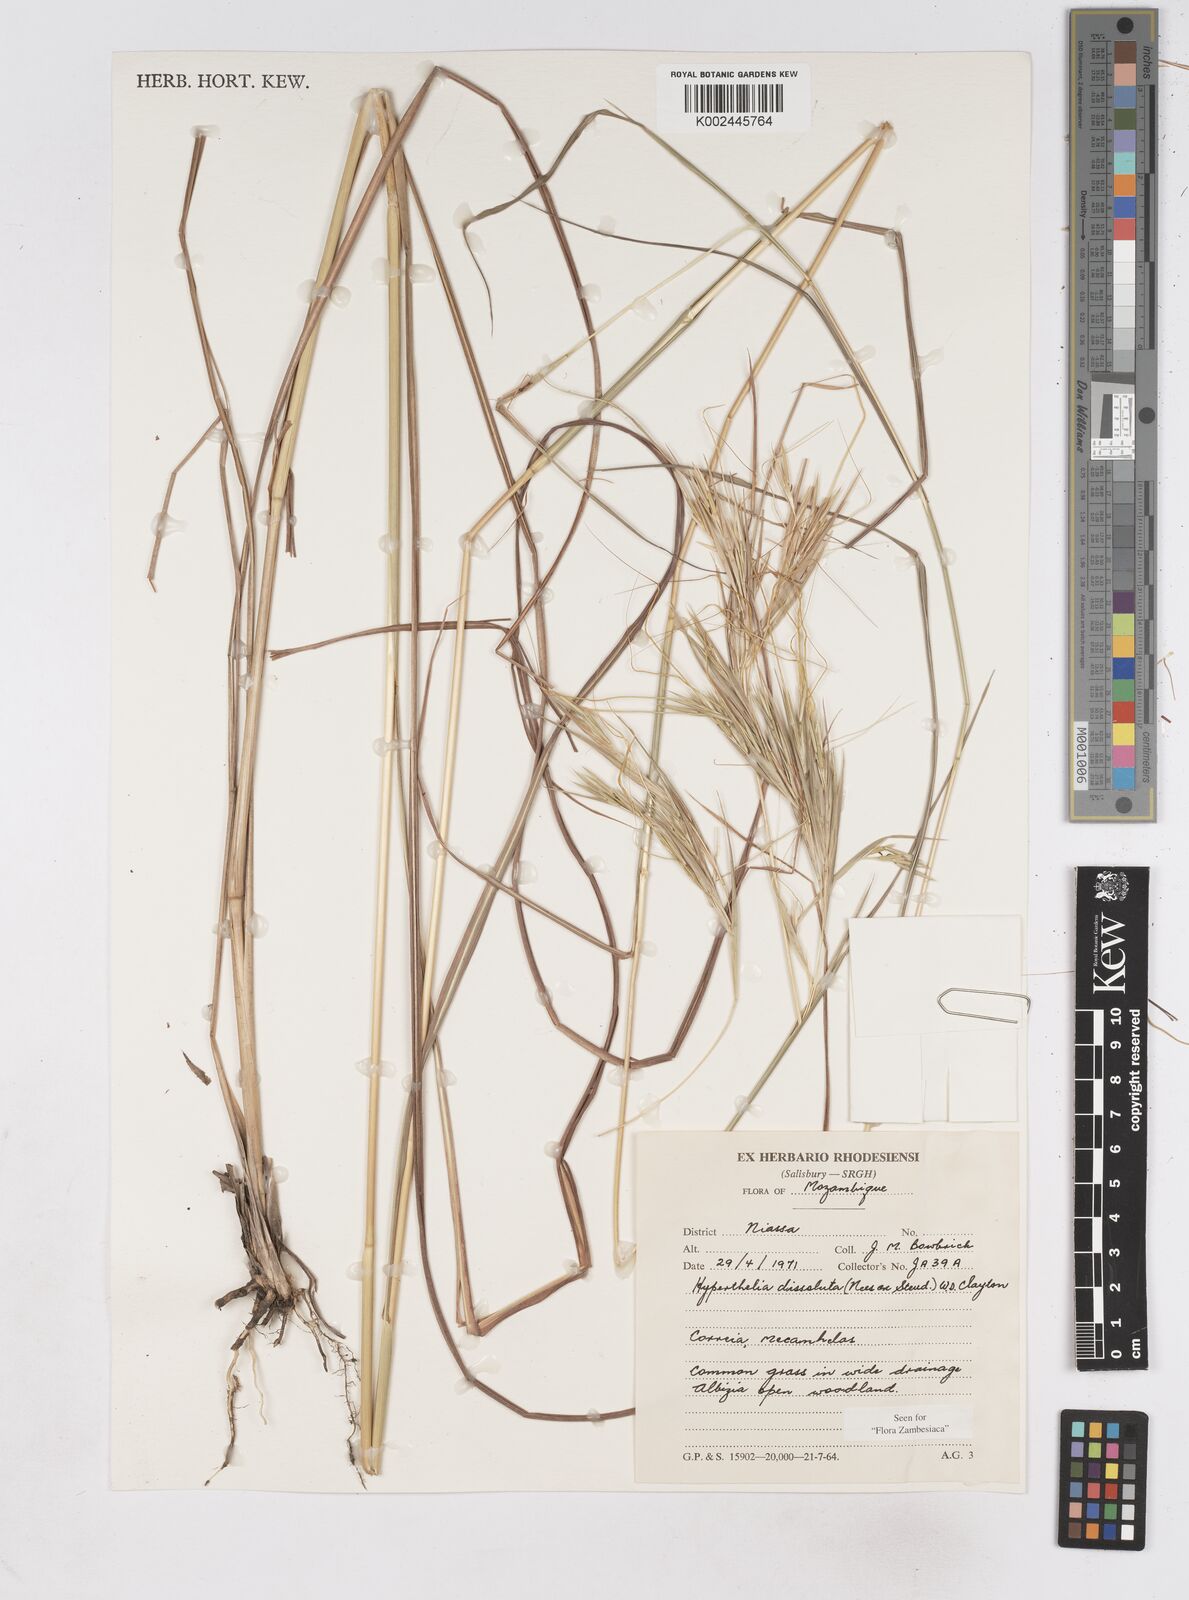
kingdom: Plantae
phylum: Tracheophyta
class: Liliopsida
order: Poales
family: Poaceae
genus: Hyperthelia
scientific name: Hyperthelia dissoluta
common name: Yellow thatching grass
